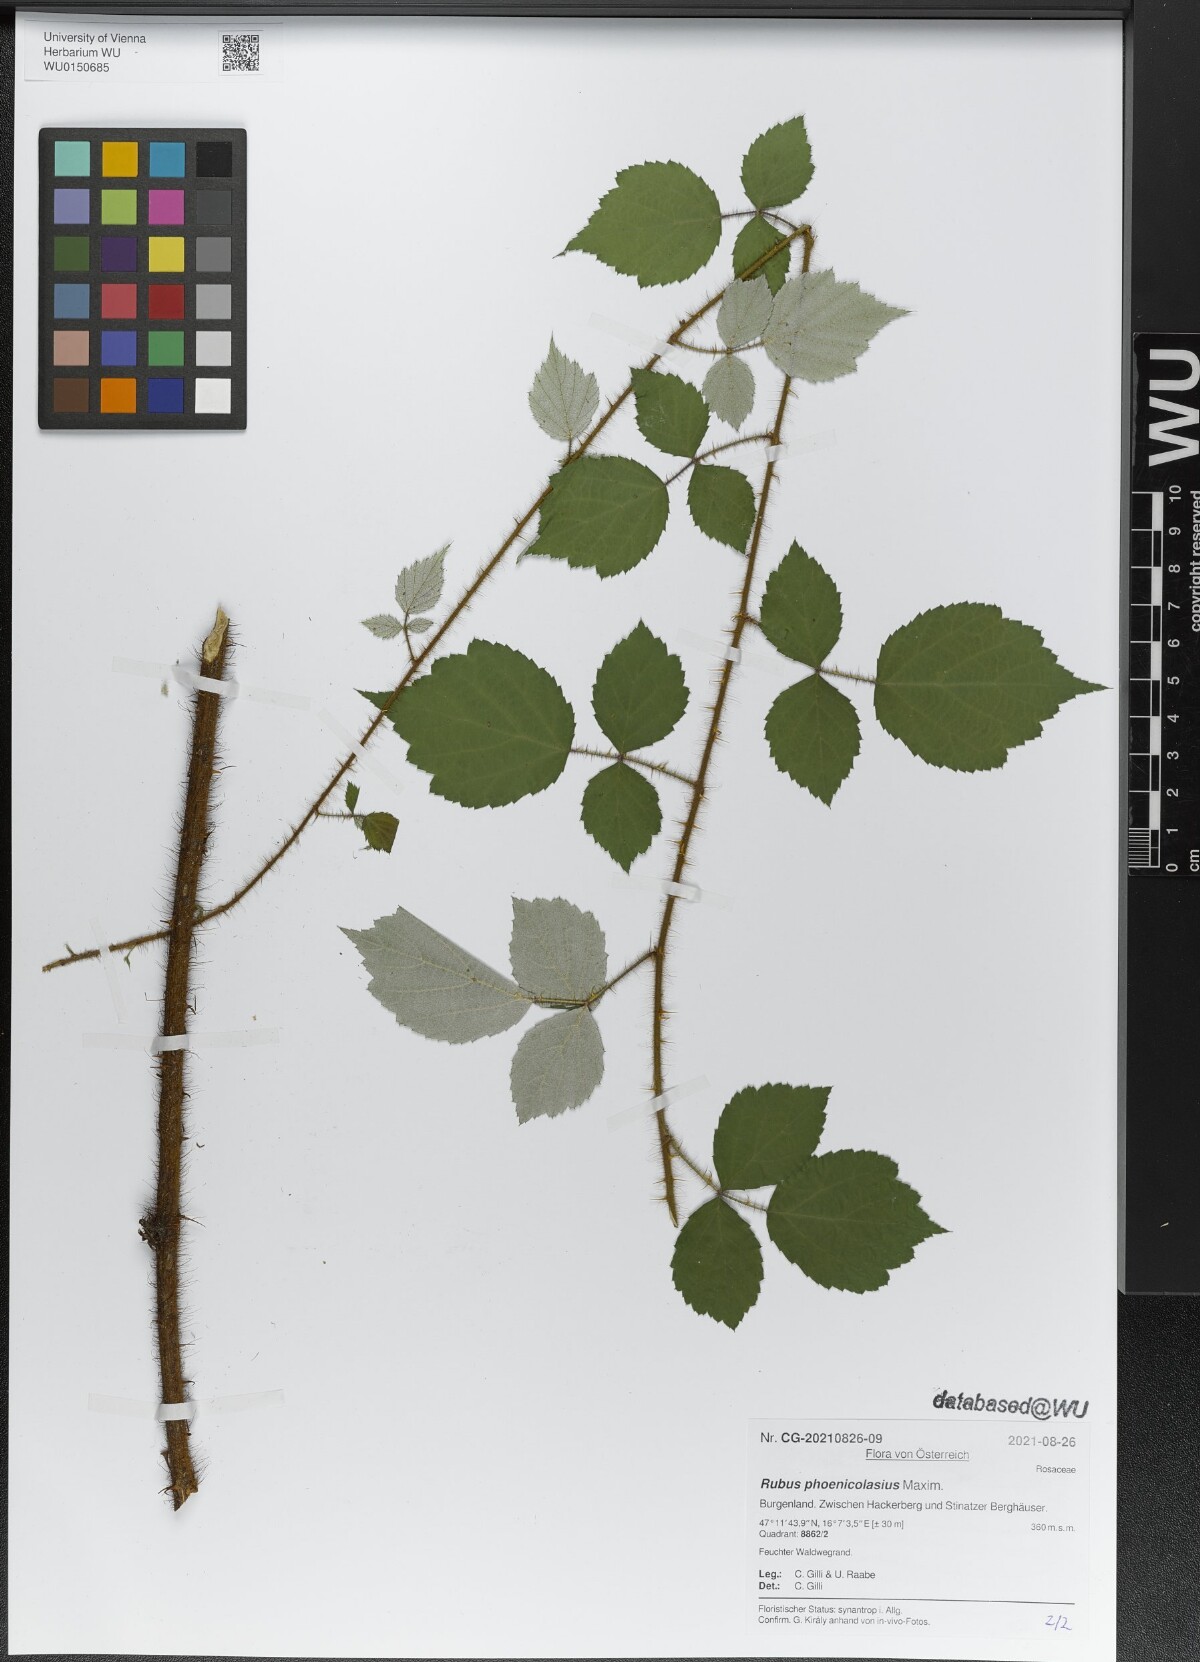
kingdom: Plantae
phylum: Tracheophyta
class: Magnoliopsida
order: Rosales
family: Rosaceae
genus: Rubus
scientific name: Rubus phoenicolasius
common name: Japanese wineberry
